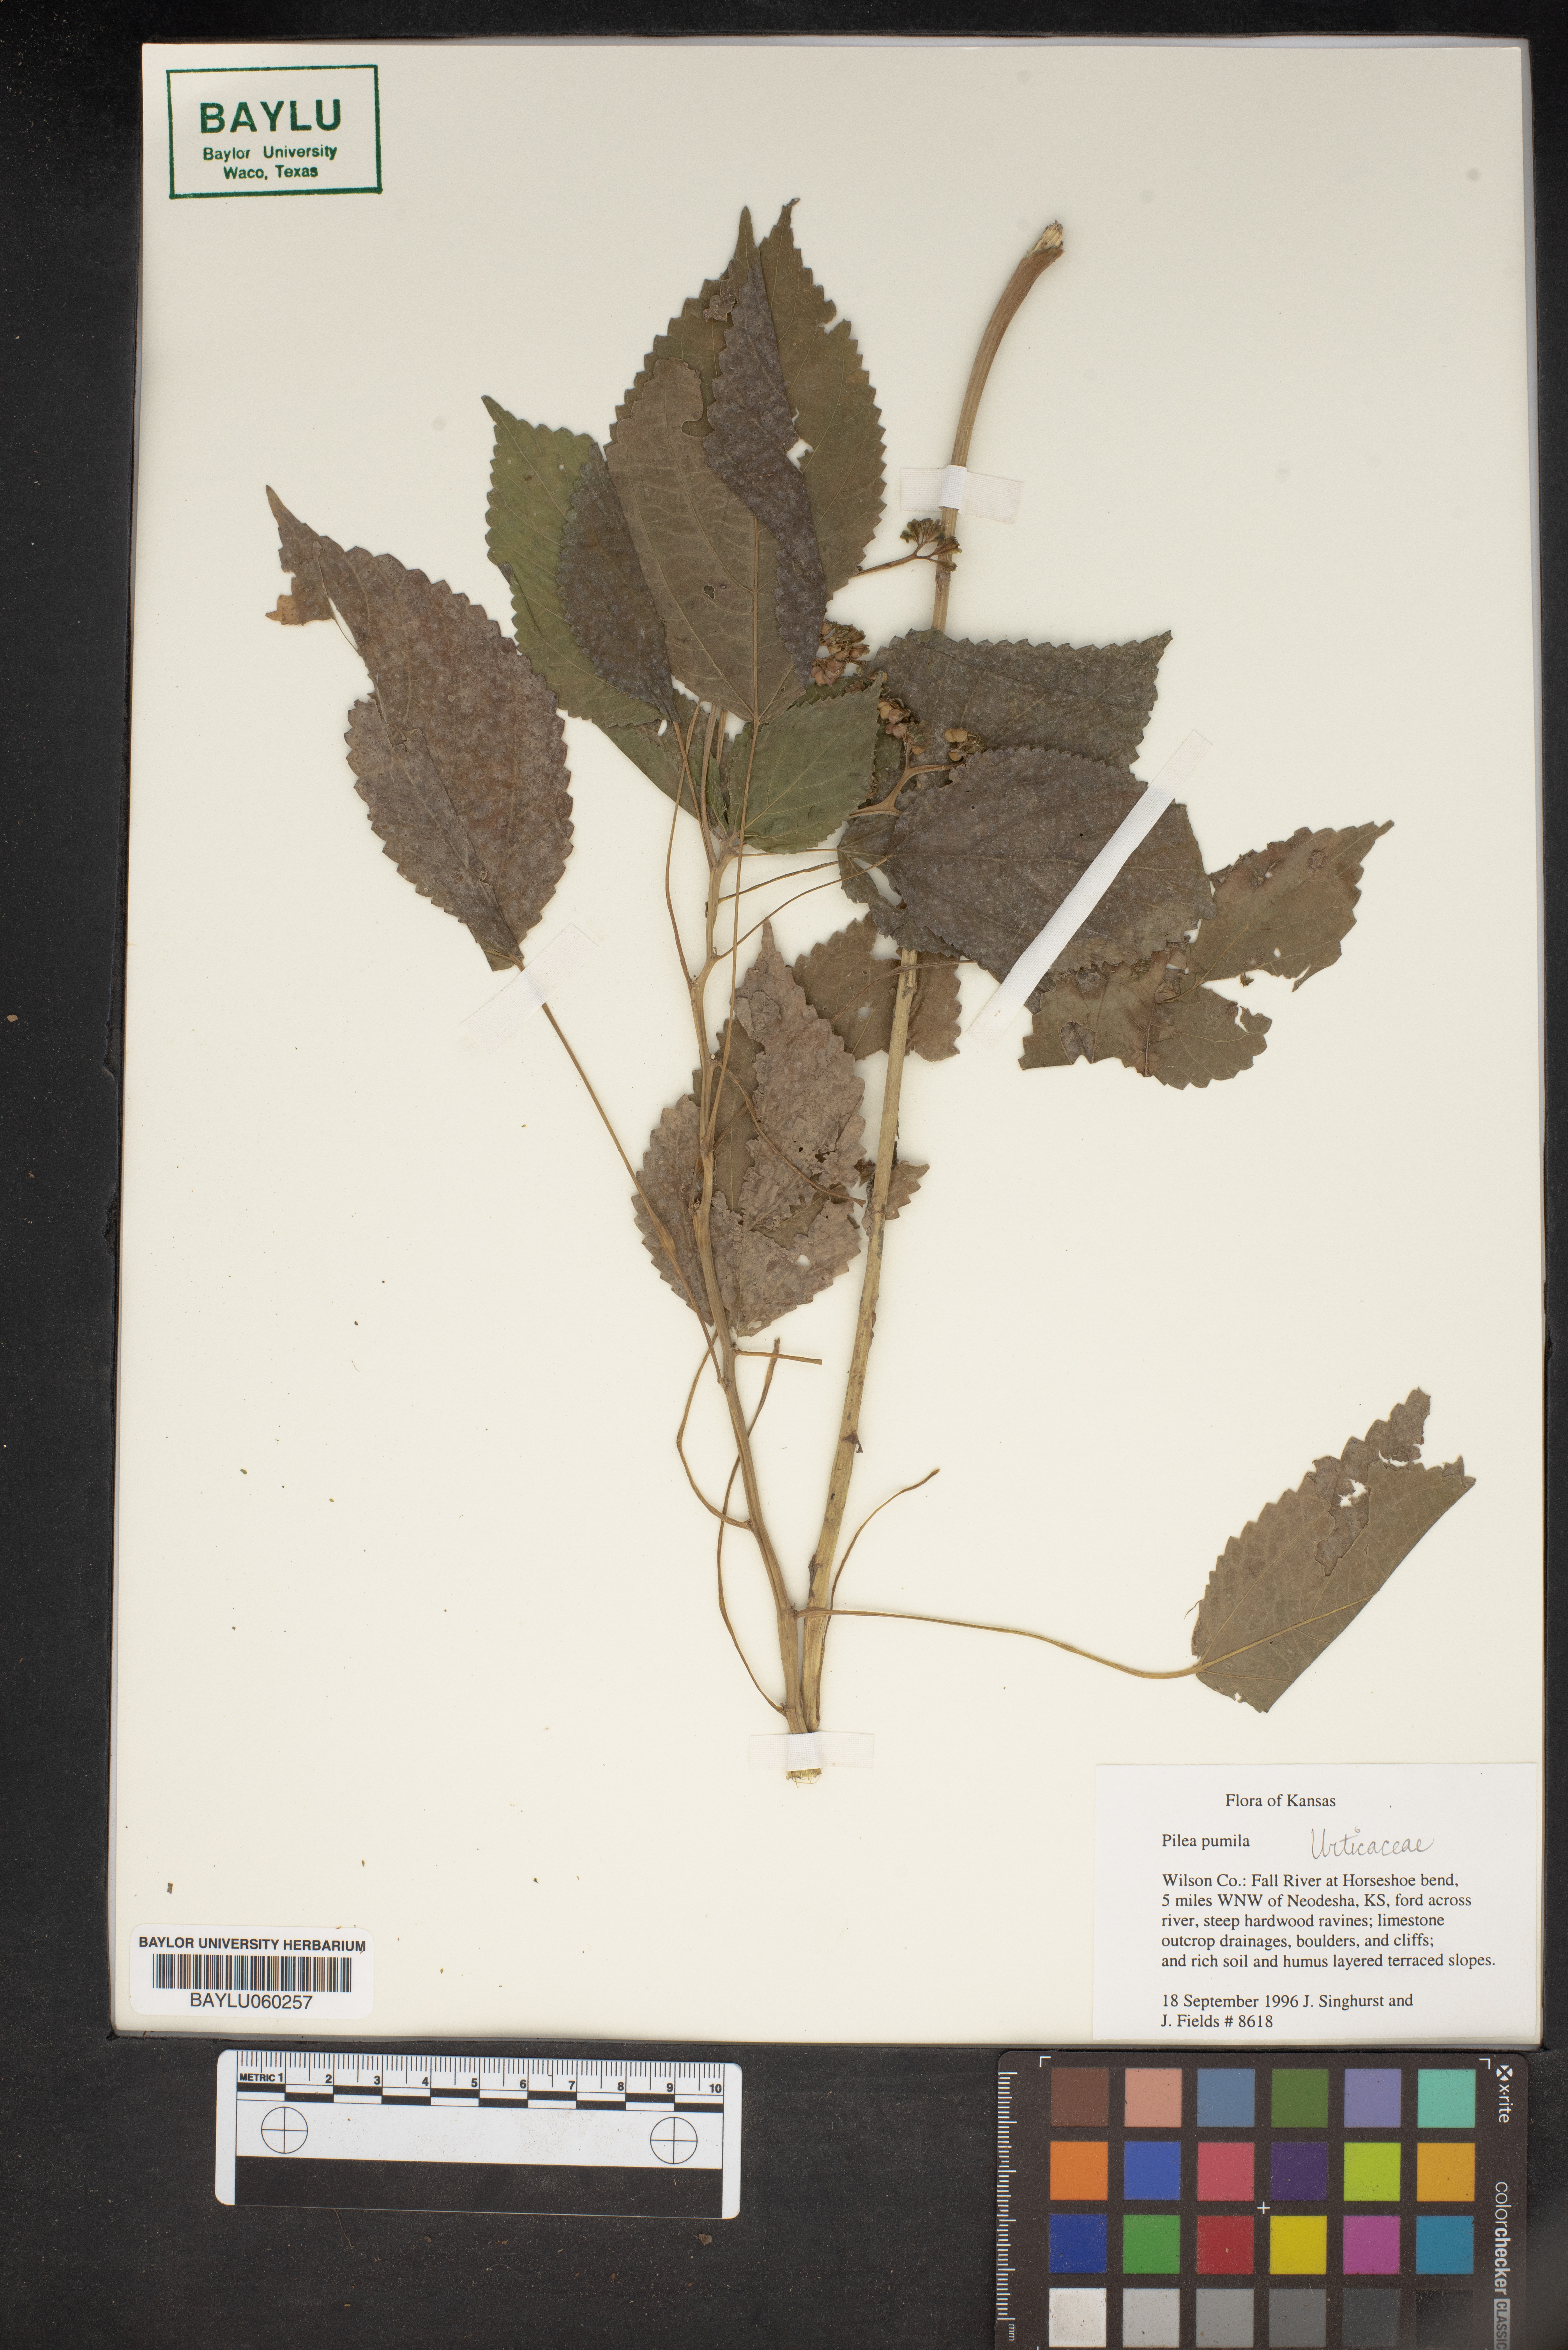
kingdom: Plantae
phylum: Tracheophyta
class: Magnoliopsida
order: Rosales
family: Urticaceae
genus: Pilea
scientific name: Pilea pumila
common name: Clearweed
